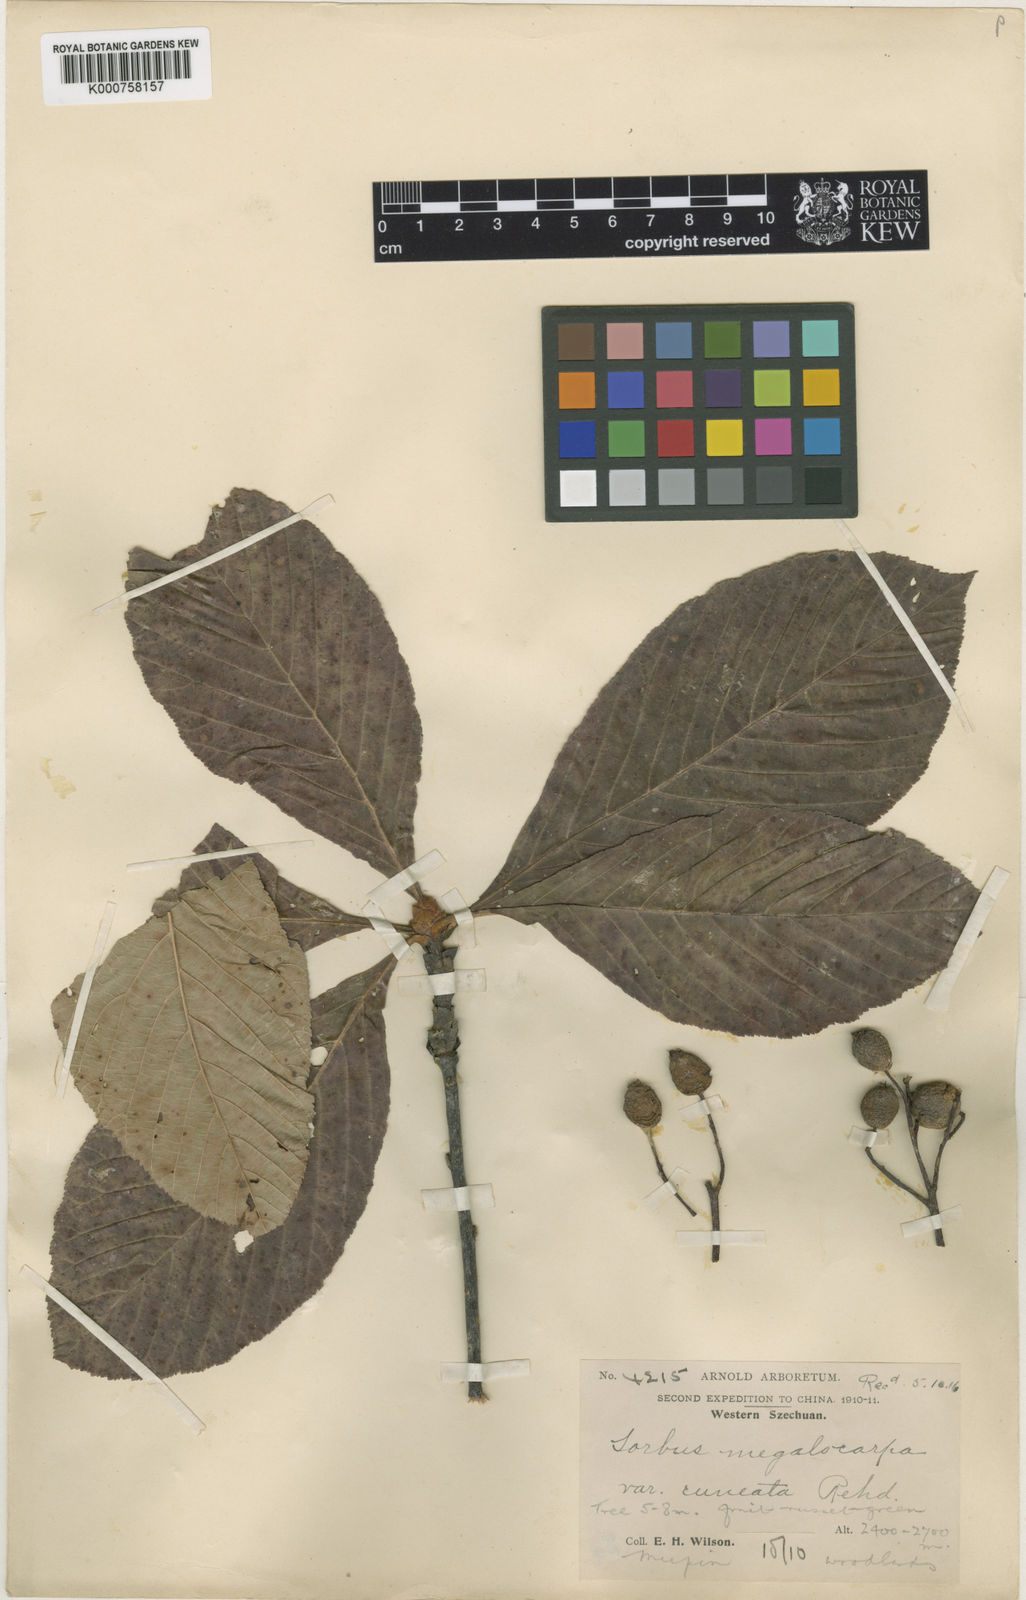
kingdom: Plantae
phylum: Tracheophyta
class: Magnoliopsida
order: Rosales
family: Rosaceae
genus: Sorbus
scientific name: Sorbus megalocarpa
